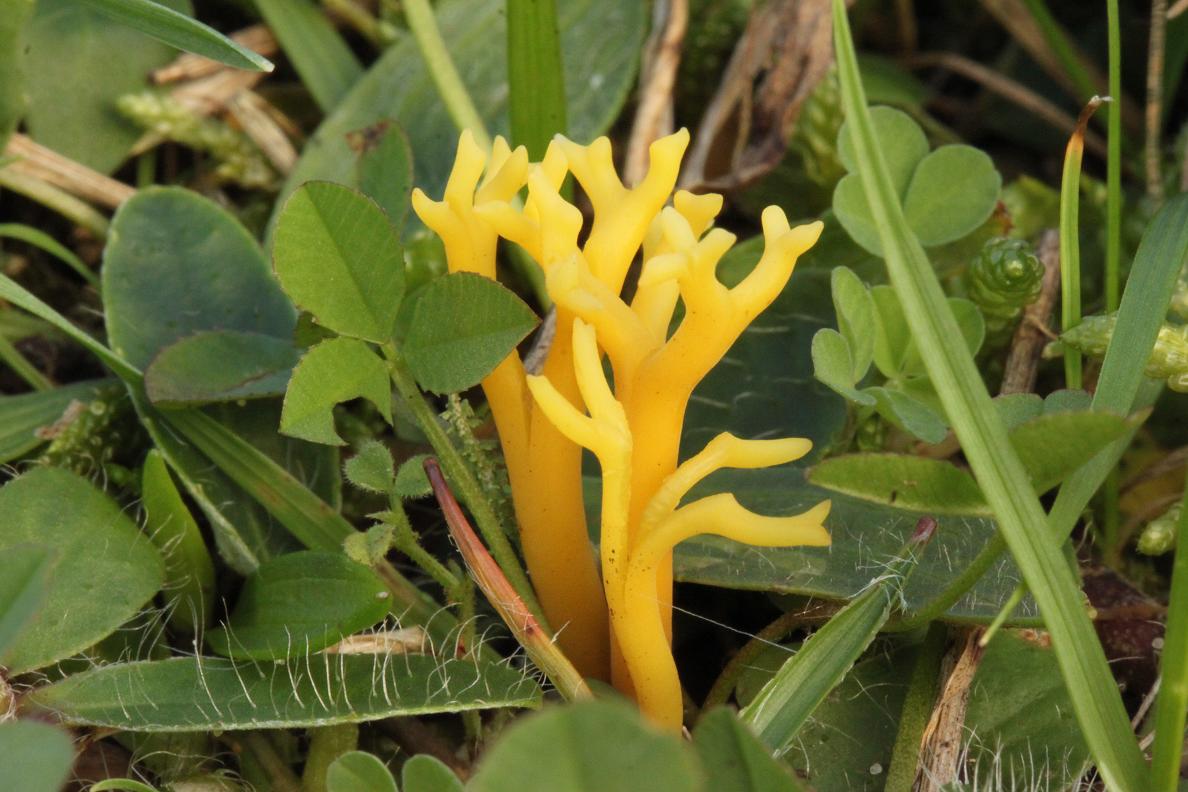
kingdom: Fungi
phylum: Basidiomycota
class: Agaricomycetes
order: Agaricales
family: Clavariaceae
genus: Clavulinopsis
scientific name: Clavulinopsis corniculata
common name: eng-køllesvamp
